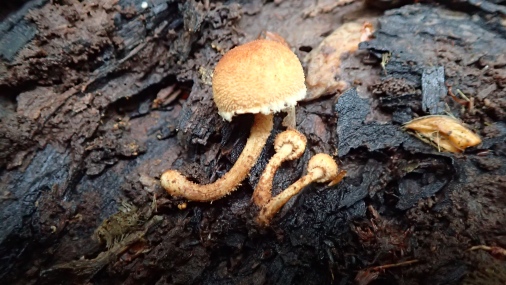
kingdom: Fungi
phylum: Basidiomycota
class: Agaricomycetes
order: Agaricales
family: Tubariaceae
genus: Flammulaster
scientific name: Flammulaster muricatus
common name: pigget grynskælhat
